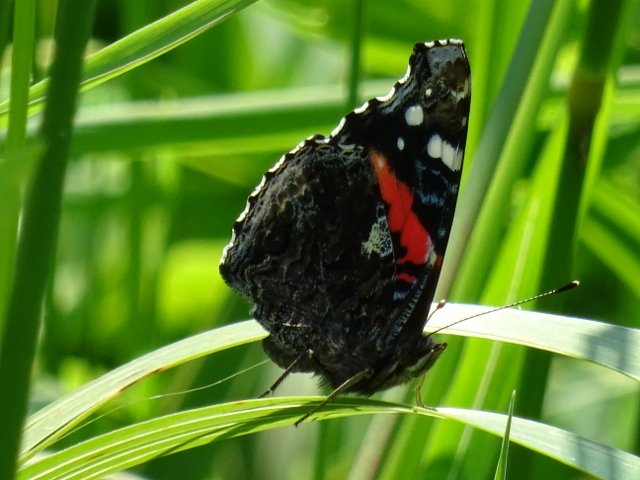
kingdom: Animalia
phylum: Arthropoda
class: Insecta
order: Lepidoptera
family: Nymphalidae
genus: Vanessa
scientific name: Vanessa atalanta
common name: Red Admiral
